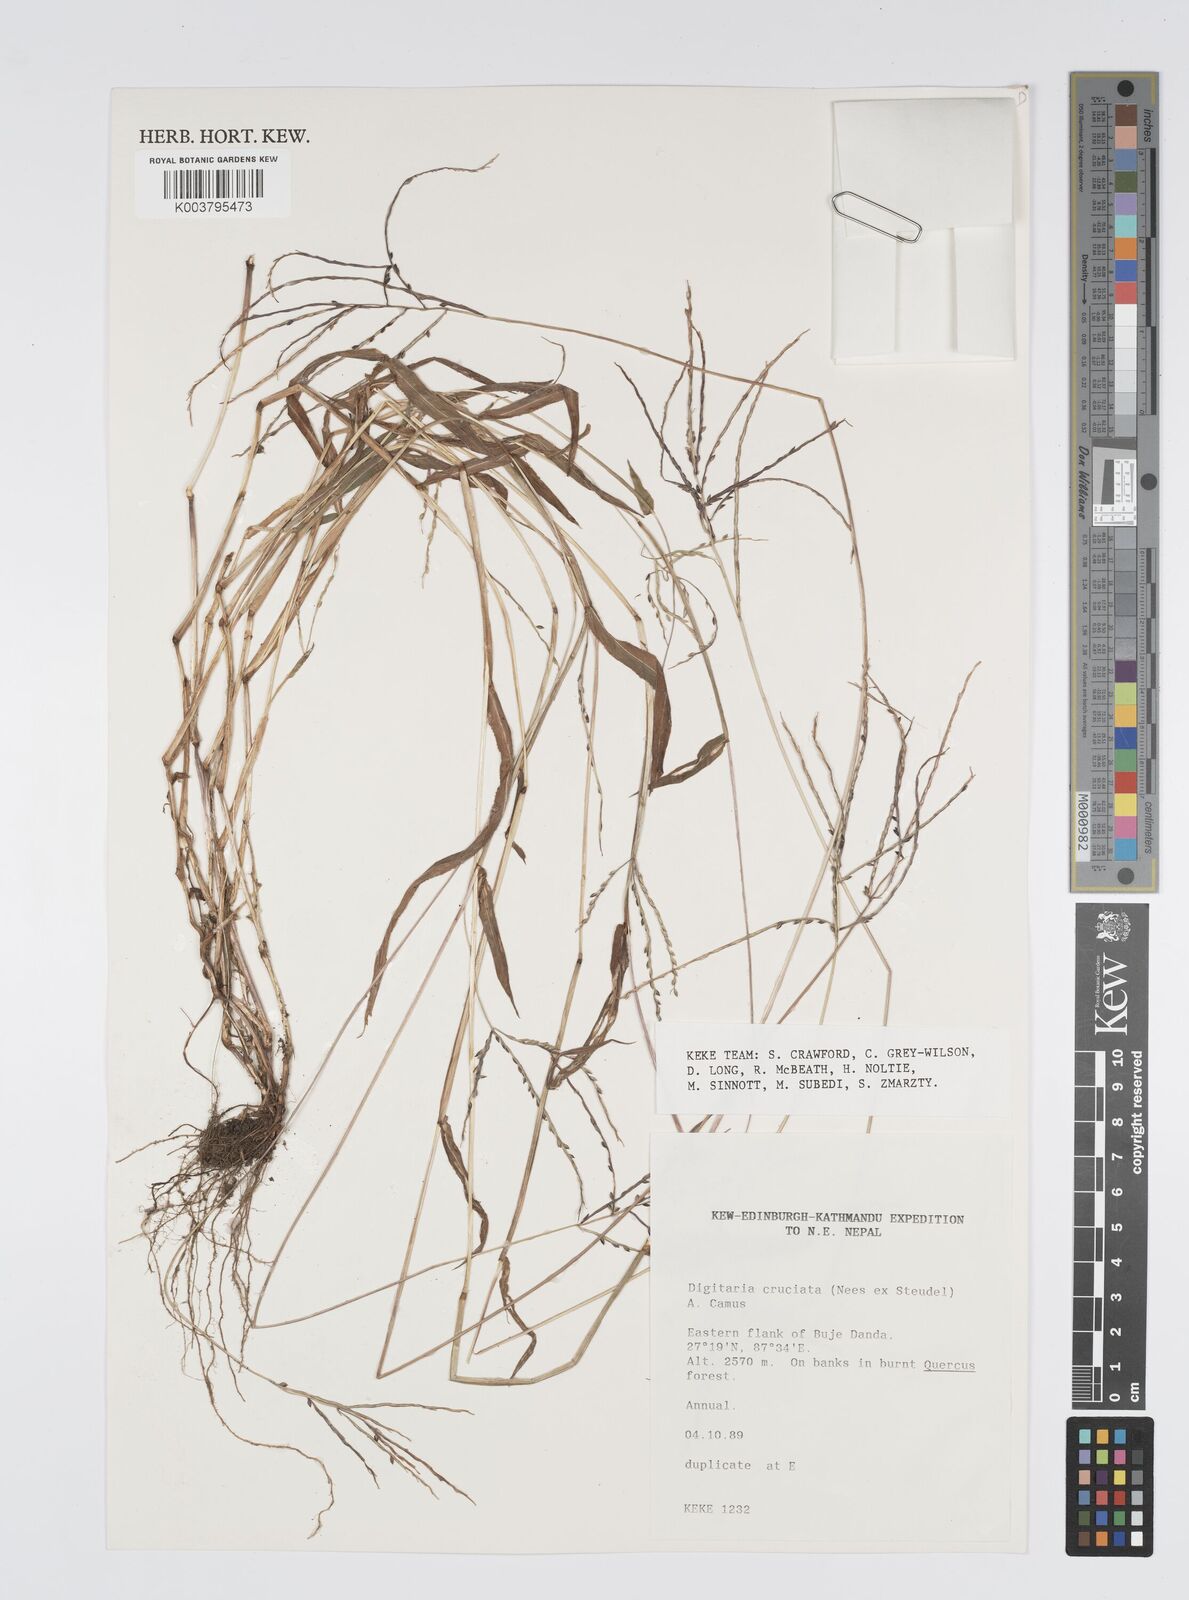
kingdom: Plantae
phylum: Tracheophyta
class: Liliopsida
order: Poales
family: Poaceae
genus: Digitaria
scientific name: Digitaria cruciata
